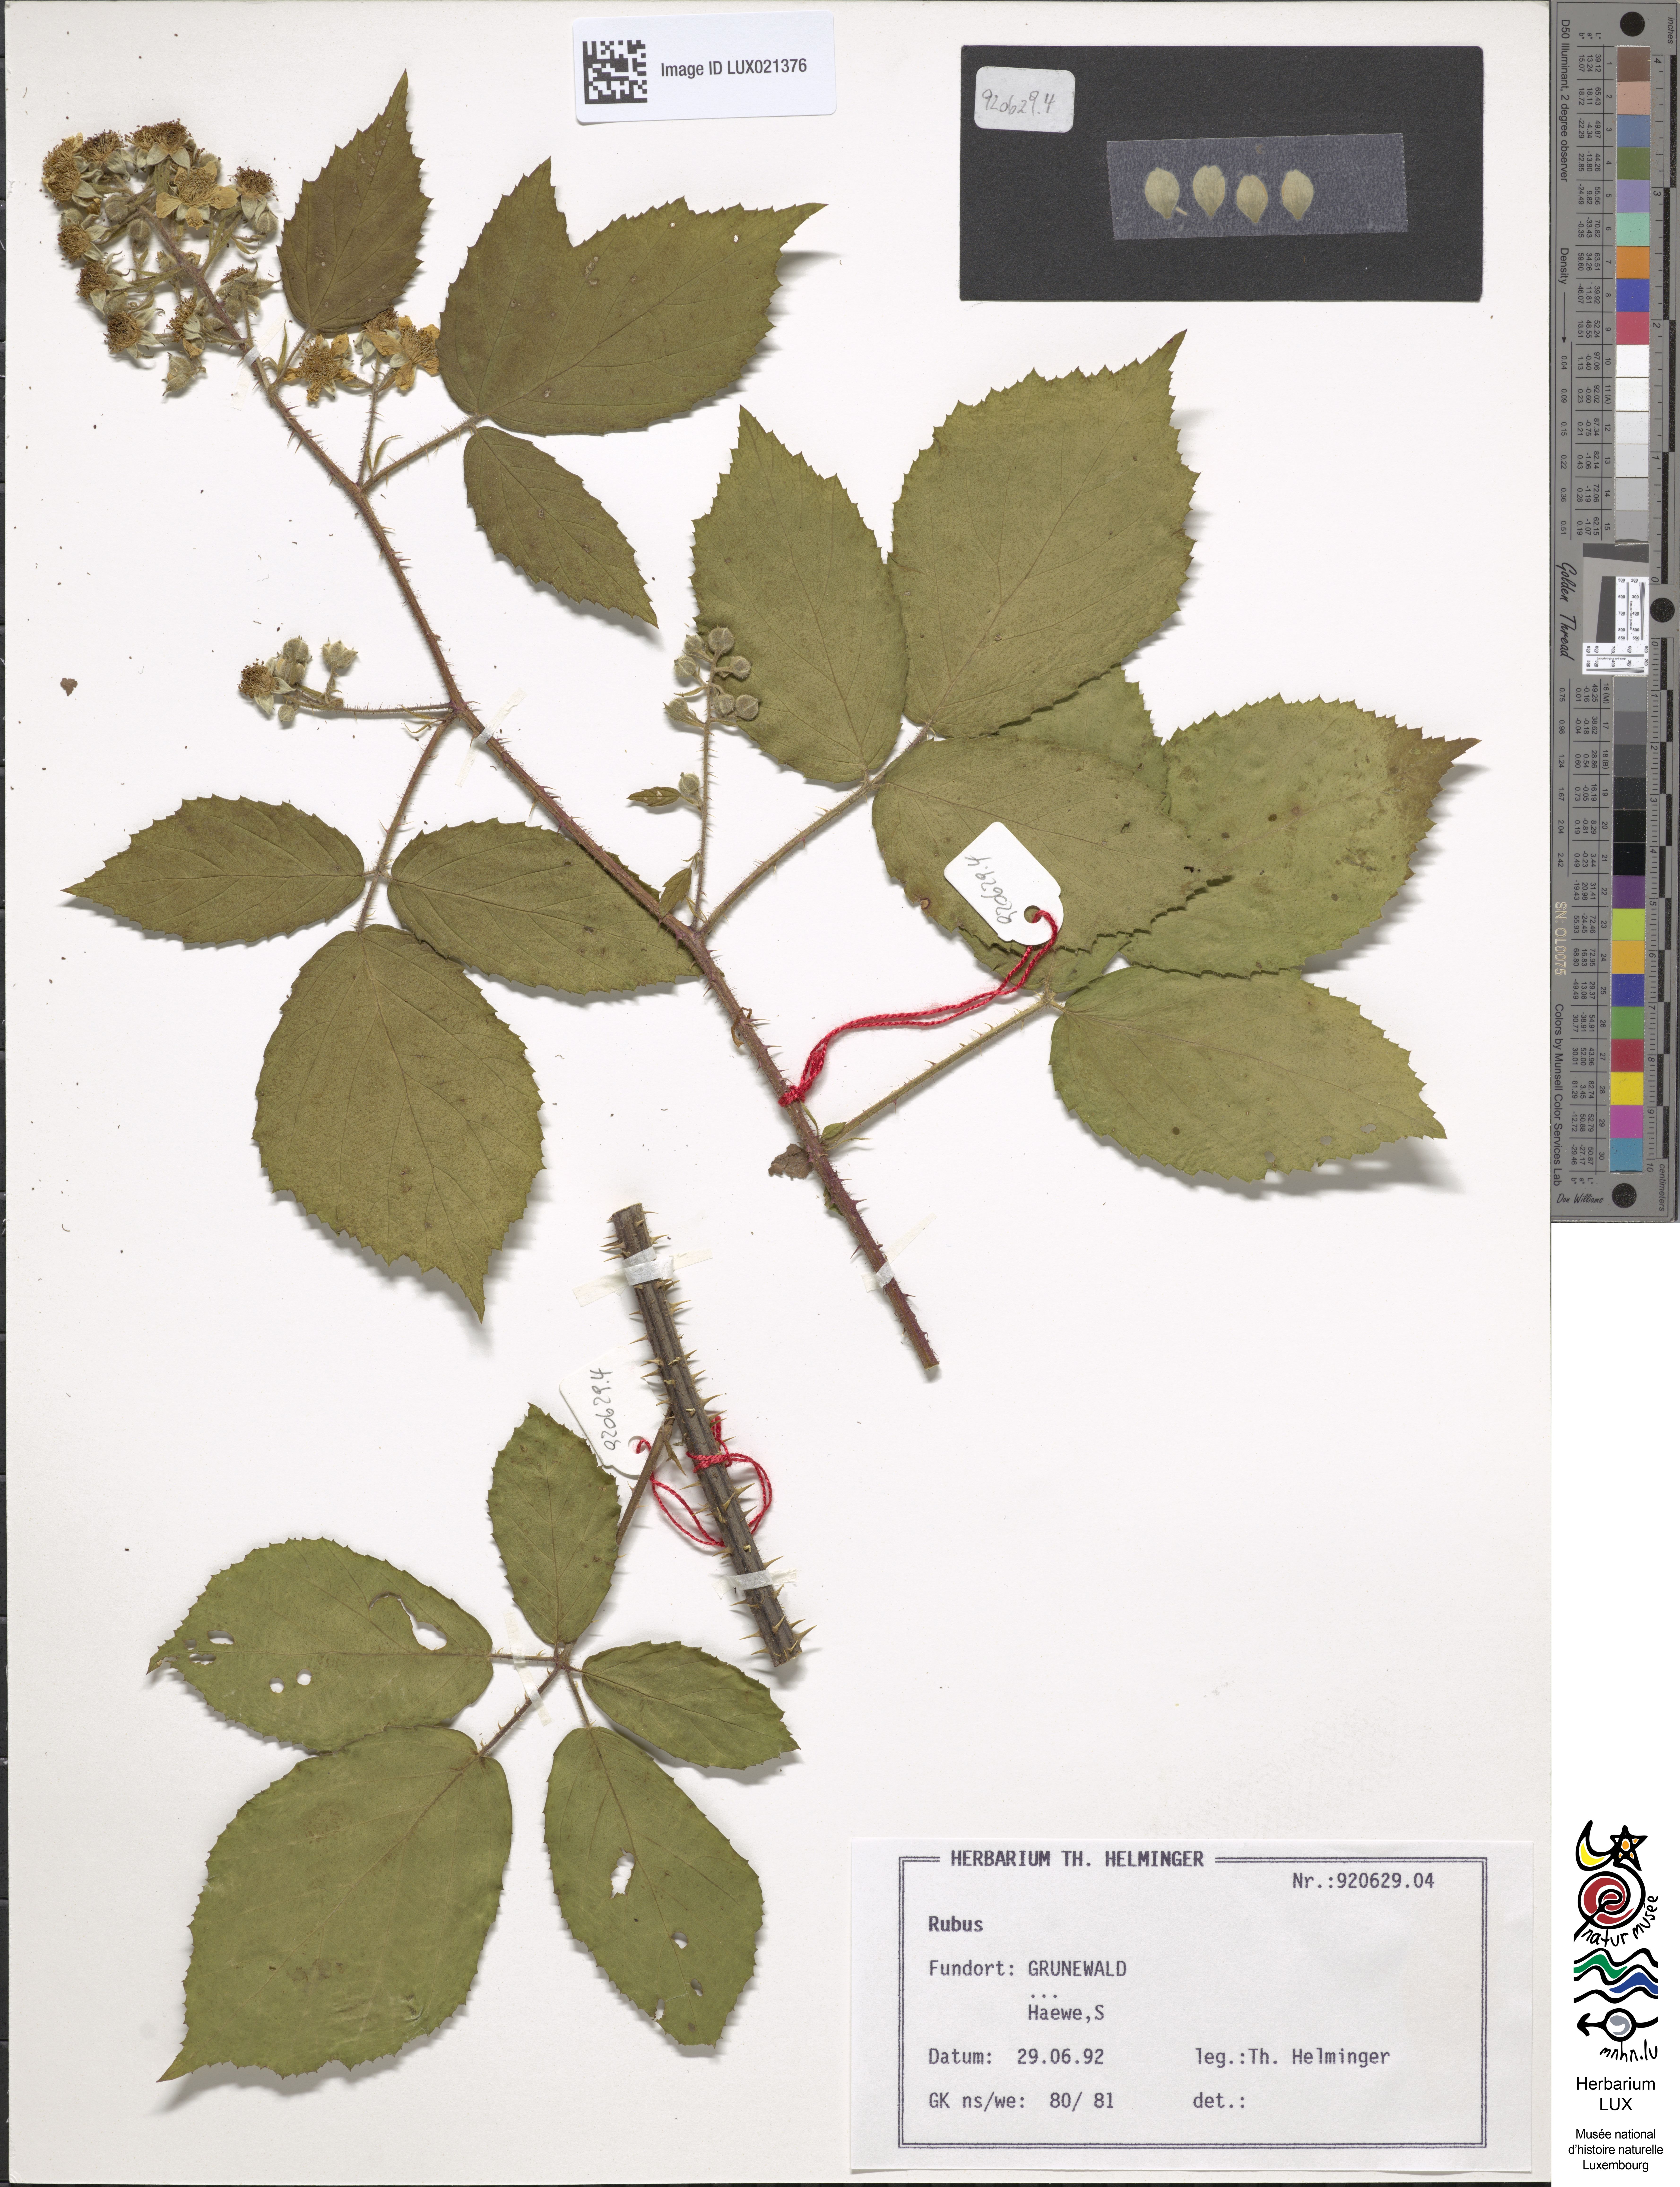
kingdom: Plantae
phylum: Tracheophyta
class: Magnoliopsida
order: Rosales
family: Rosaceae
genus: Rubus
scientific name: Rubus
